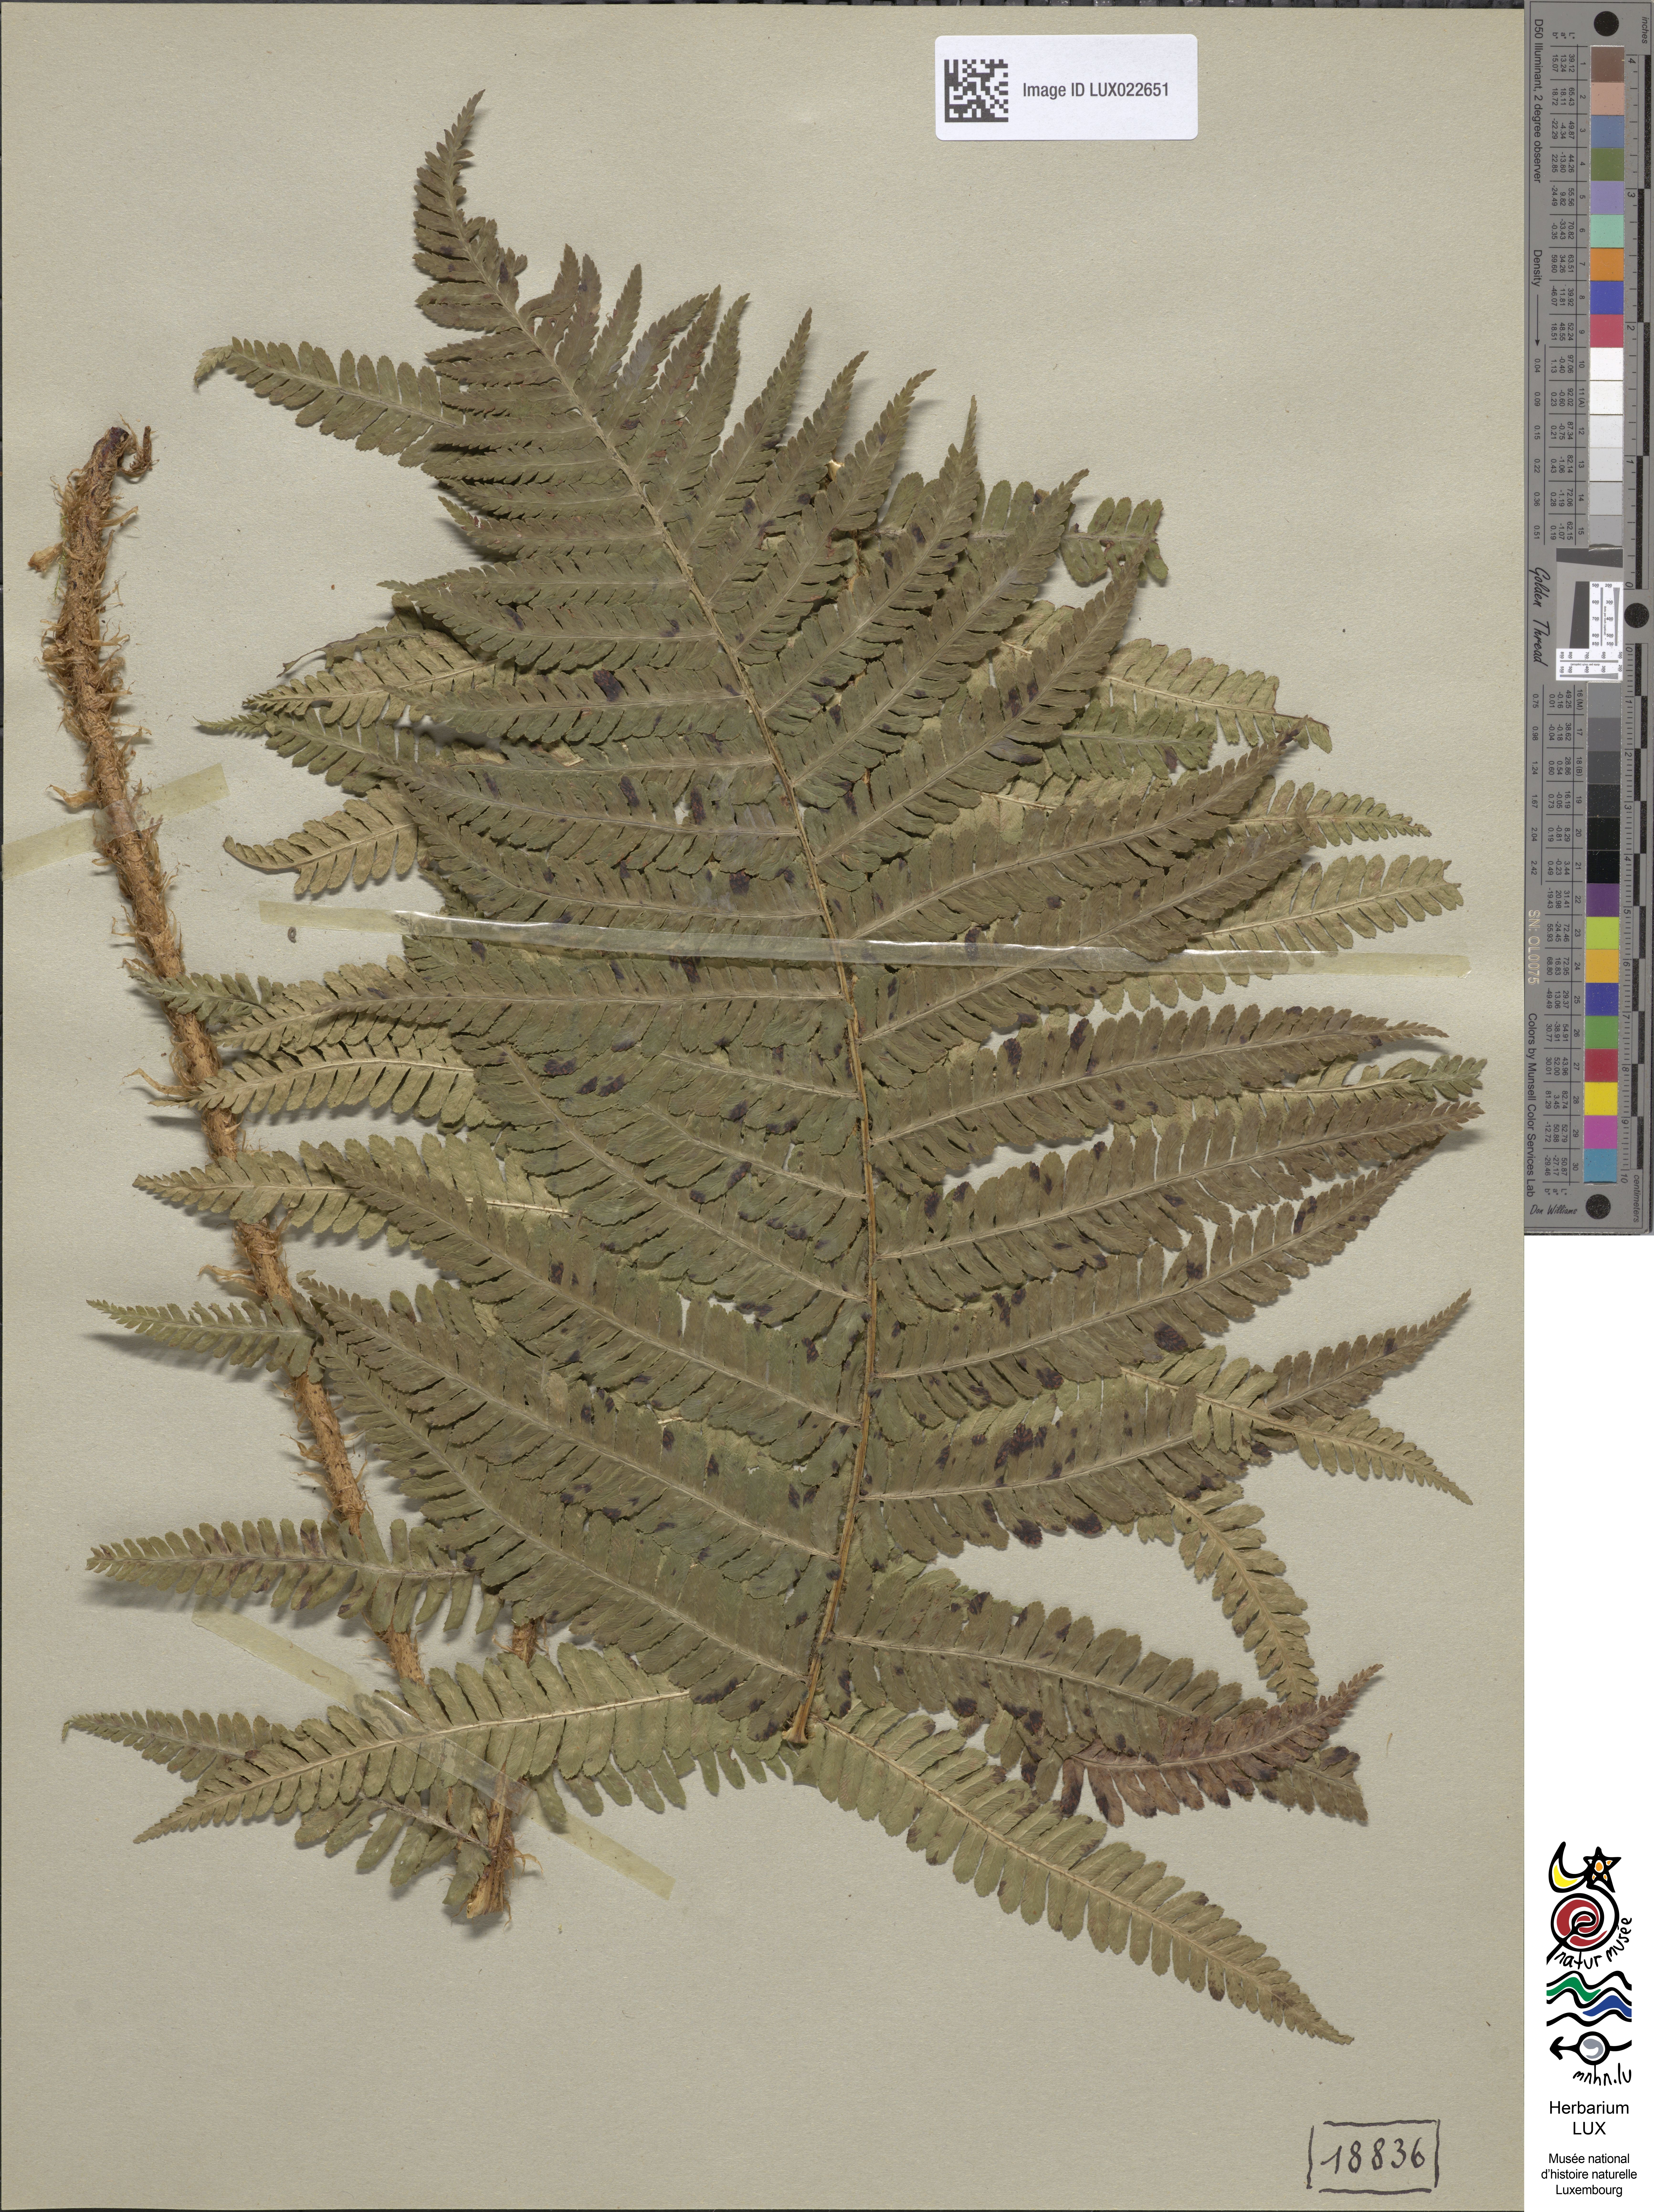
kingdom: Plantae
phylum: Tracheophyta
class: Polypodiopsida
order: Polypodiales
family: Dryopteridaceae
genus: Dryopteris
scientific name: Dryopteris borreri
